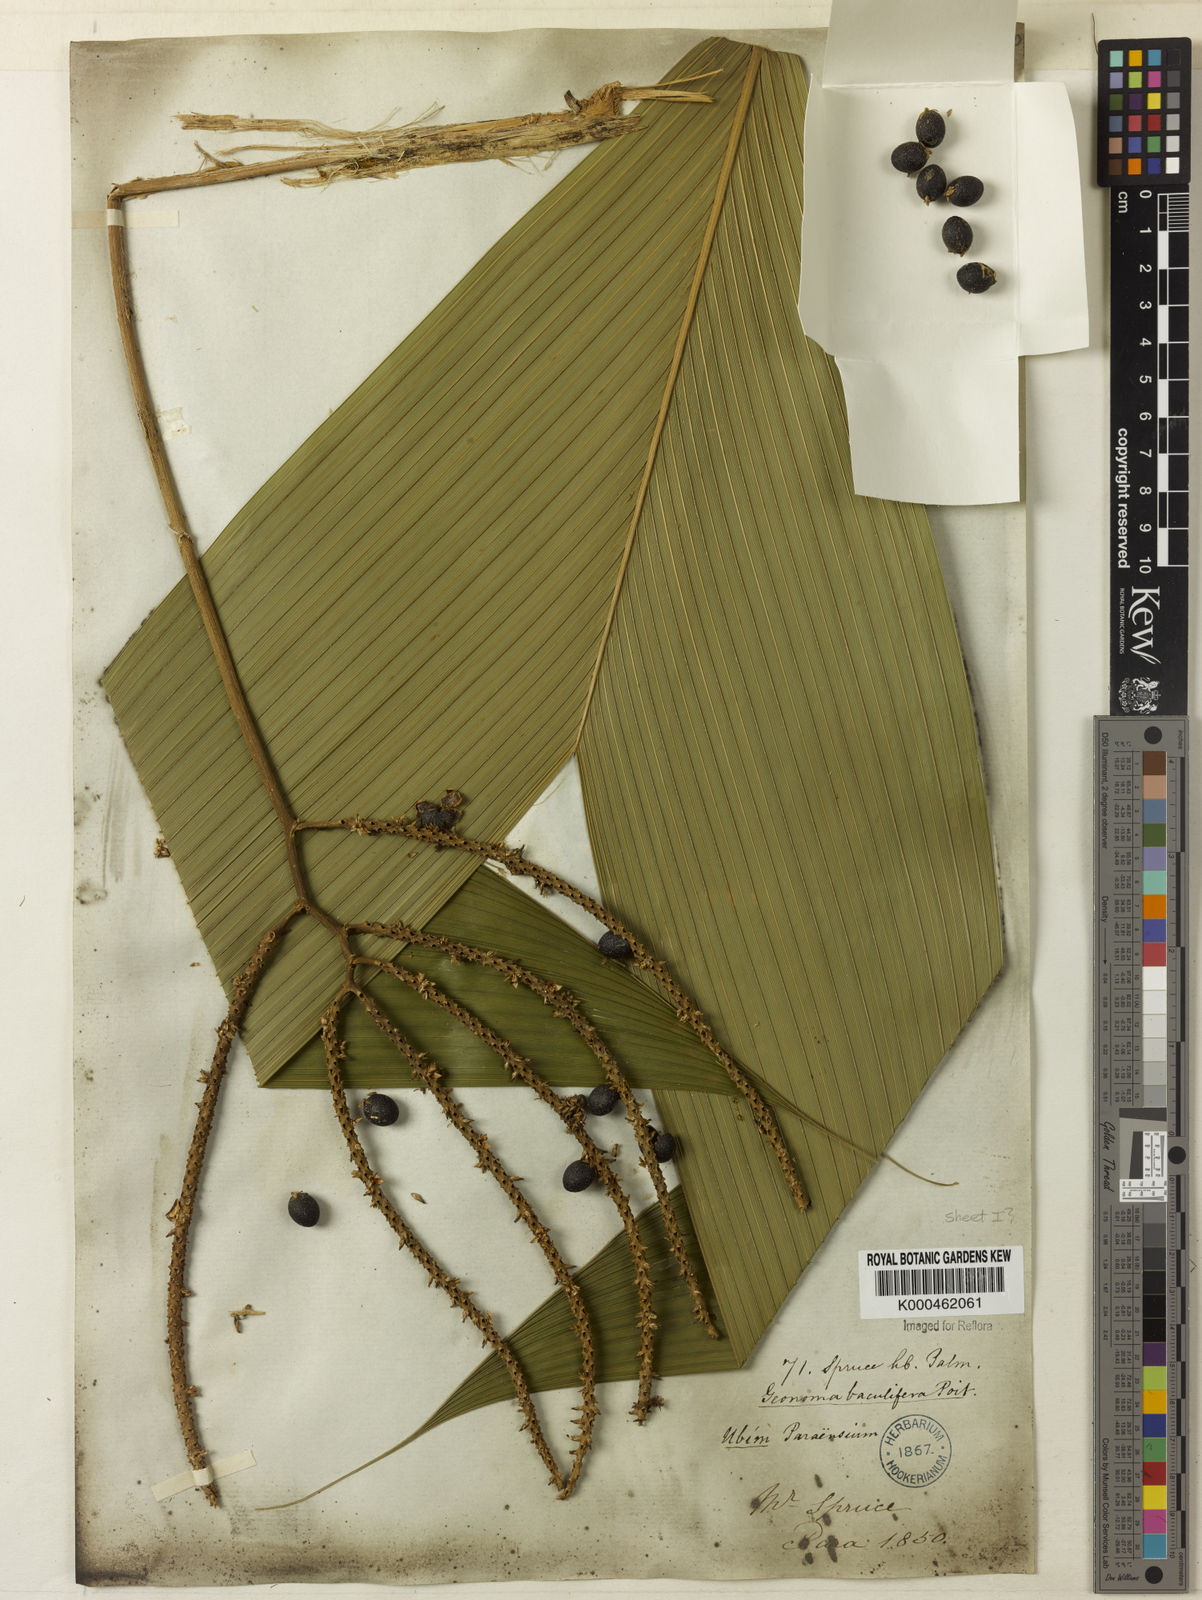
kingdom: Plantae
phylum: Tracheophyta
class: Liliopsida
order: Arecales
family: Arecaceae
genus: Geonoma
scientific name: Geonoma baculifera
